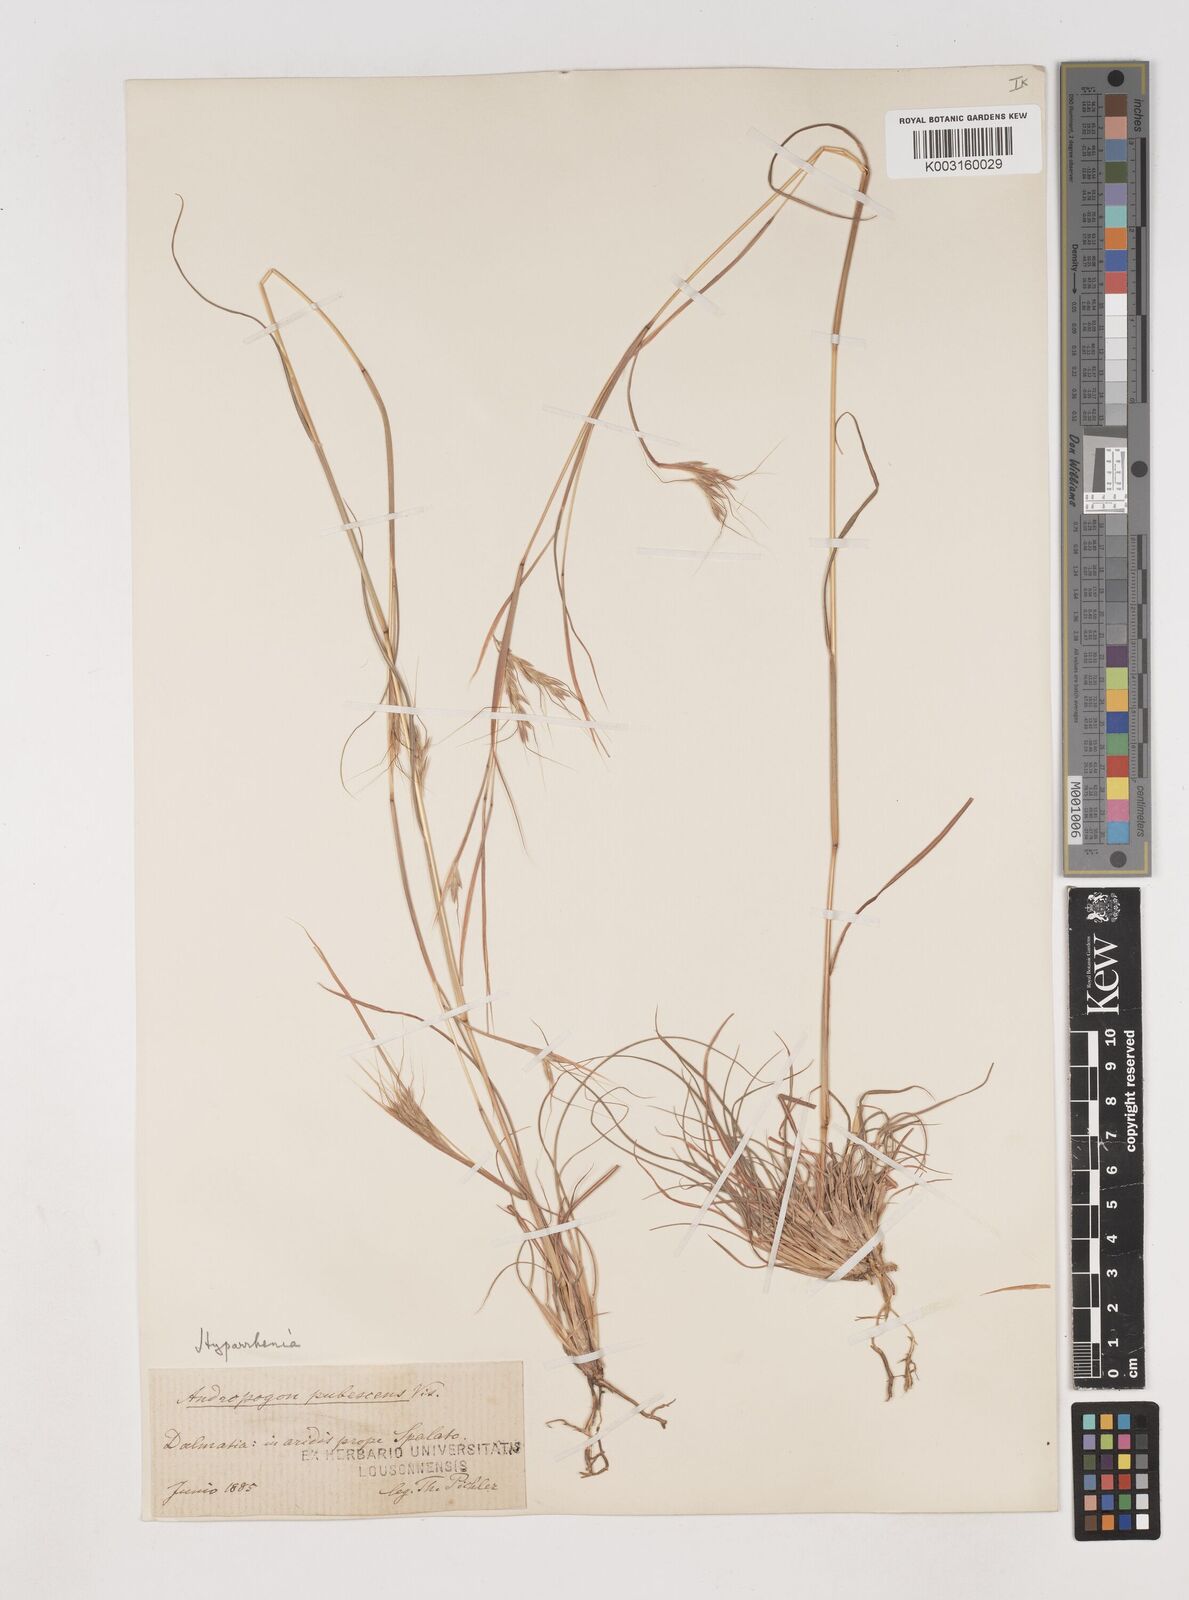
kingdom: Plantae
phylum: Tracheophyta
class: Liliopsida
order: Poales
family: Poaceae
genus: Hyparrhenia
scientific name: Hyparrhenia hirta
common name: Thatching grass
